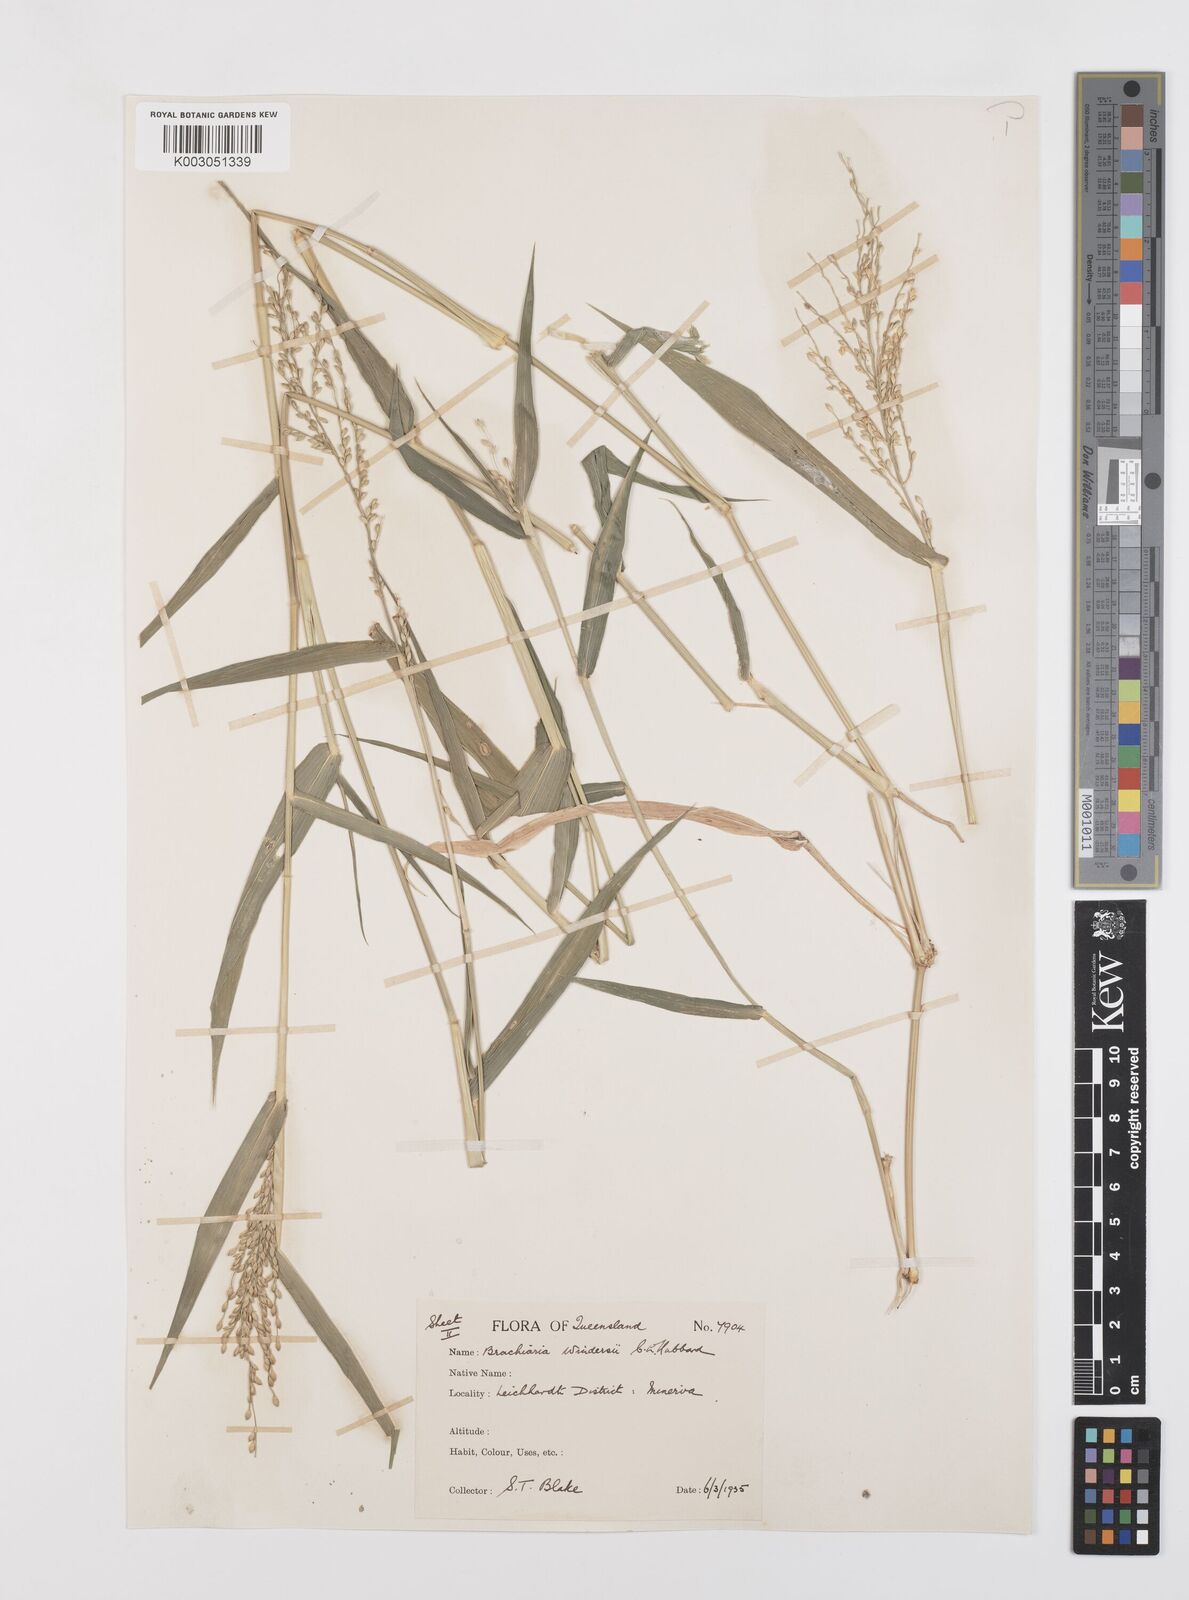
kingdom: Plantae
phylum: Tracheophyta
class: Liliopsida
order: Poales
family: Poaceae
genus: Urochloa
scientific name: Urochloa whiteana
